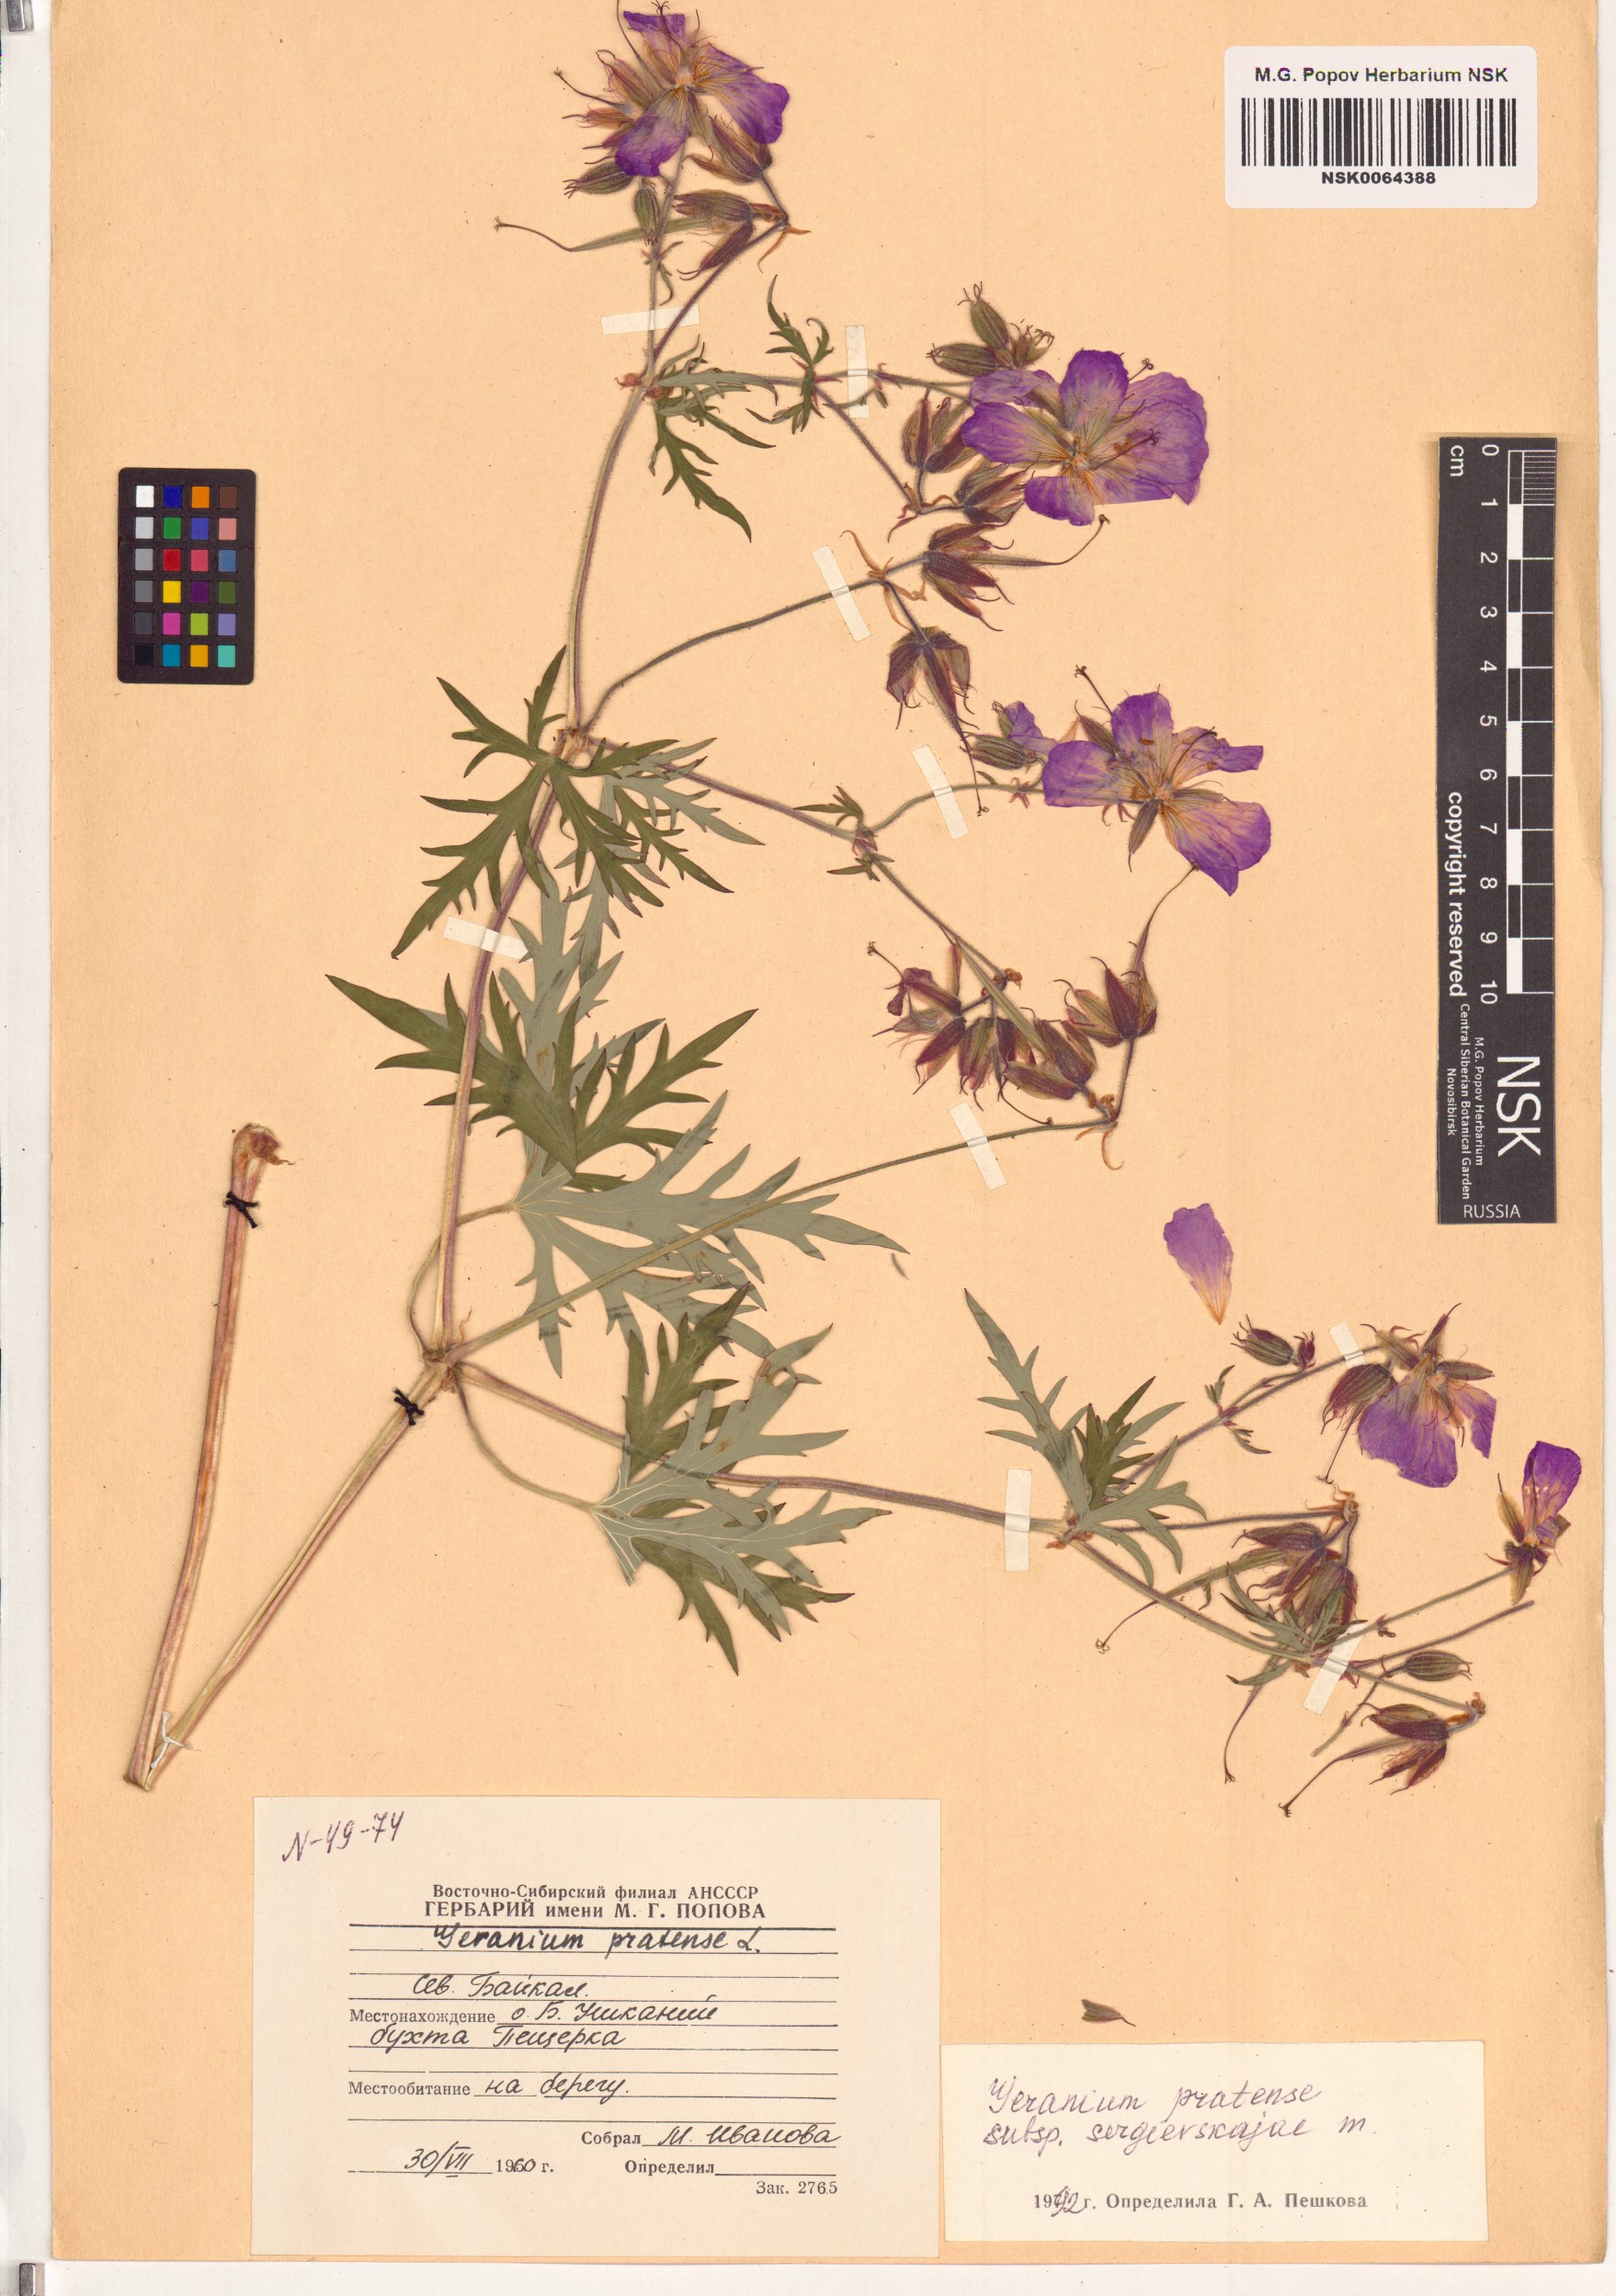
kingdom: Plantae
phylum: Tracheophyta
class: Magnoliopsida
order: Geraniales
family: Geraniaceae
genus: Geranium
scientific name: Geranium pratense
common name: Meadow crane's-bill
